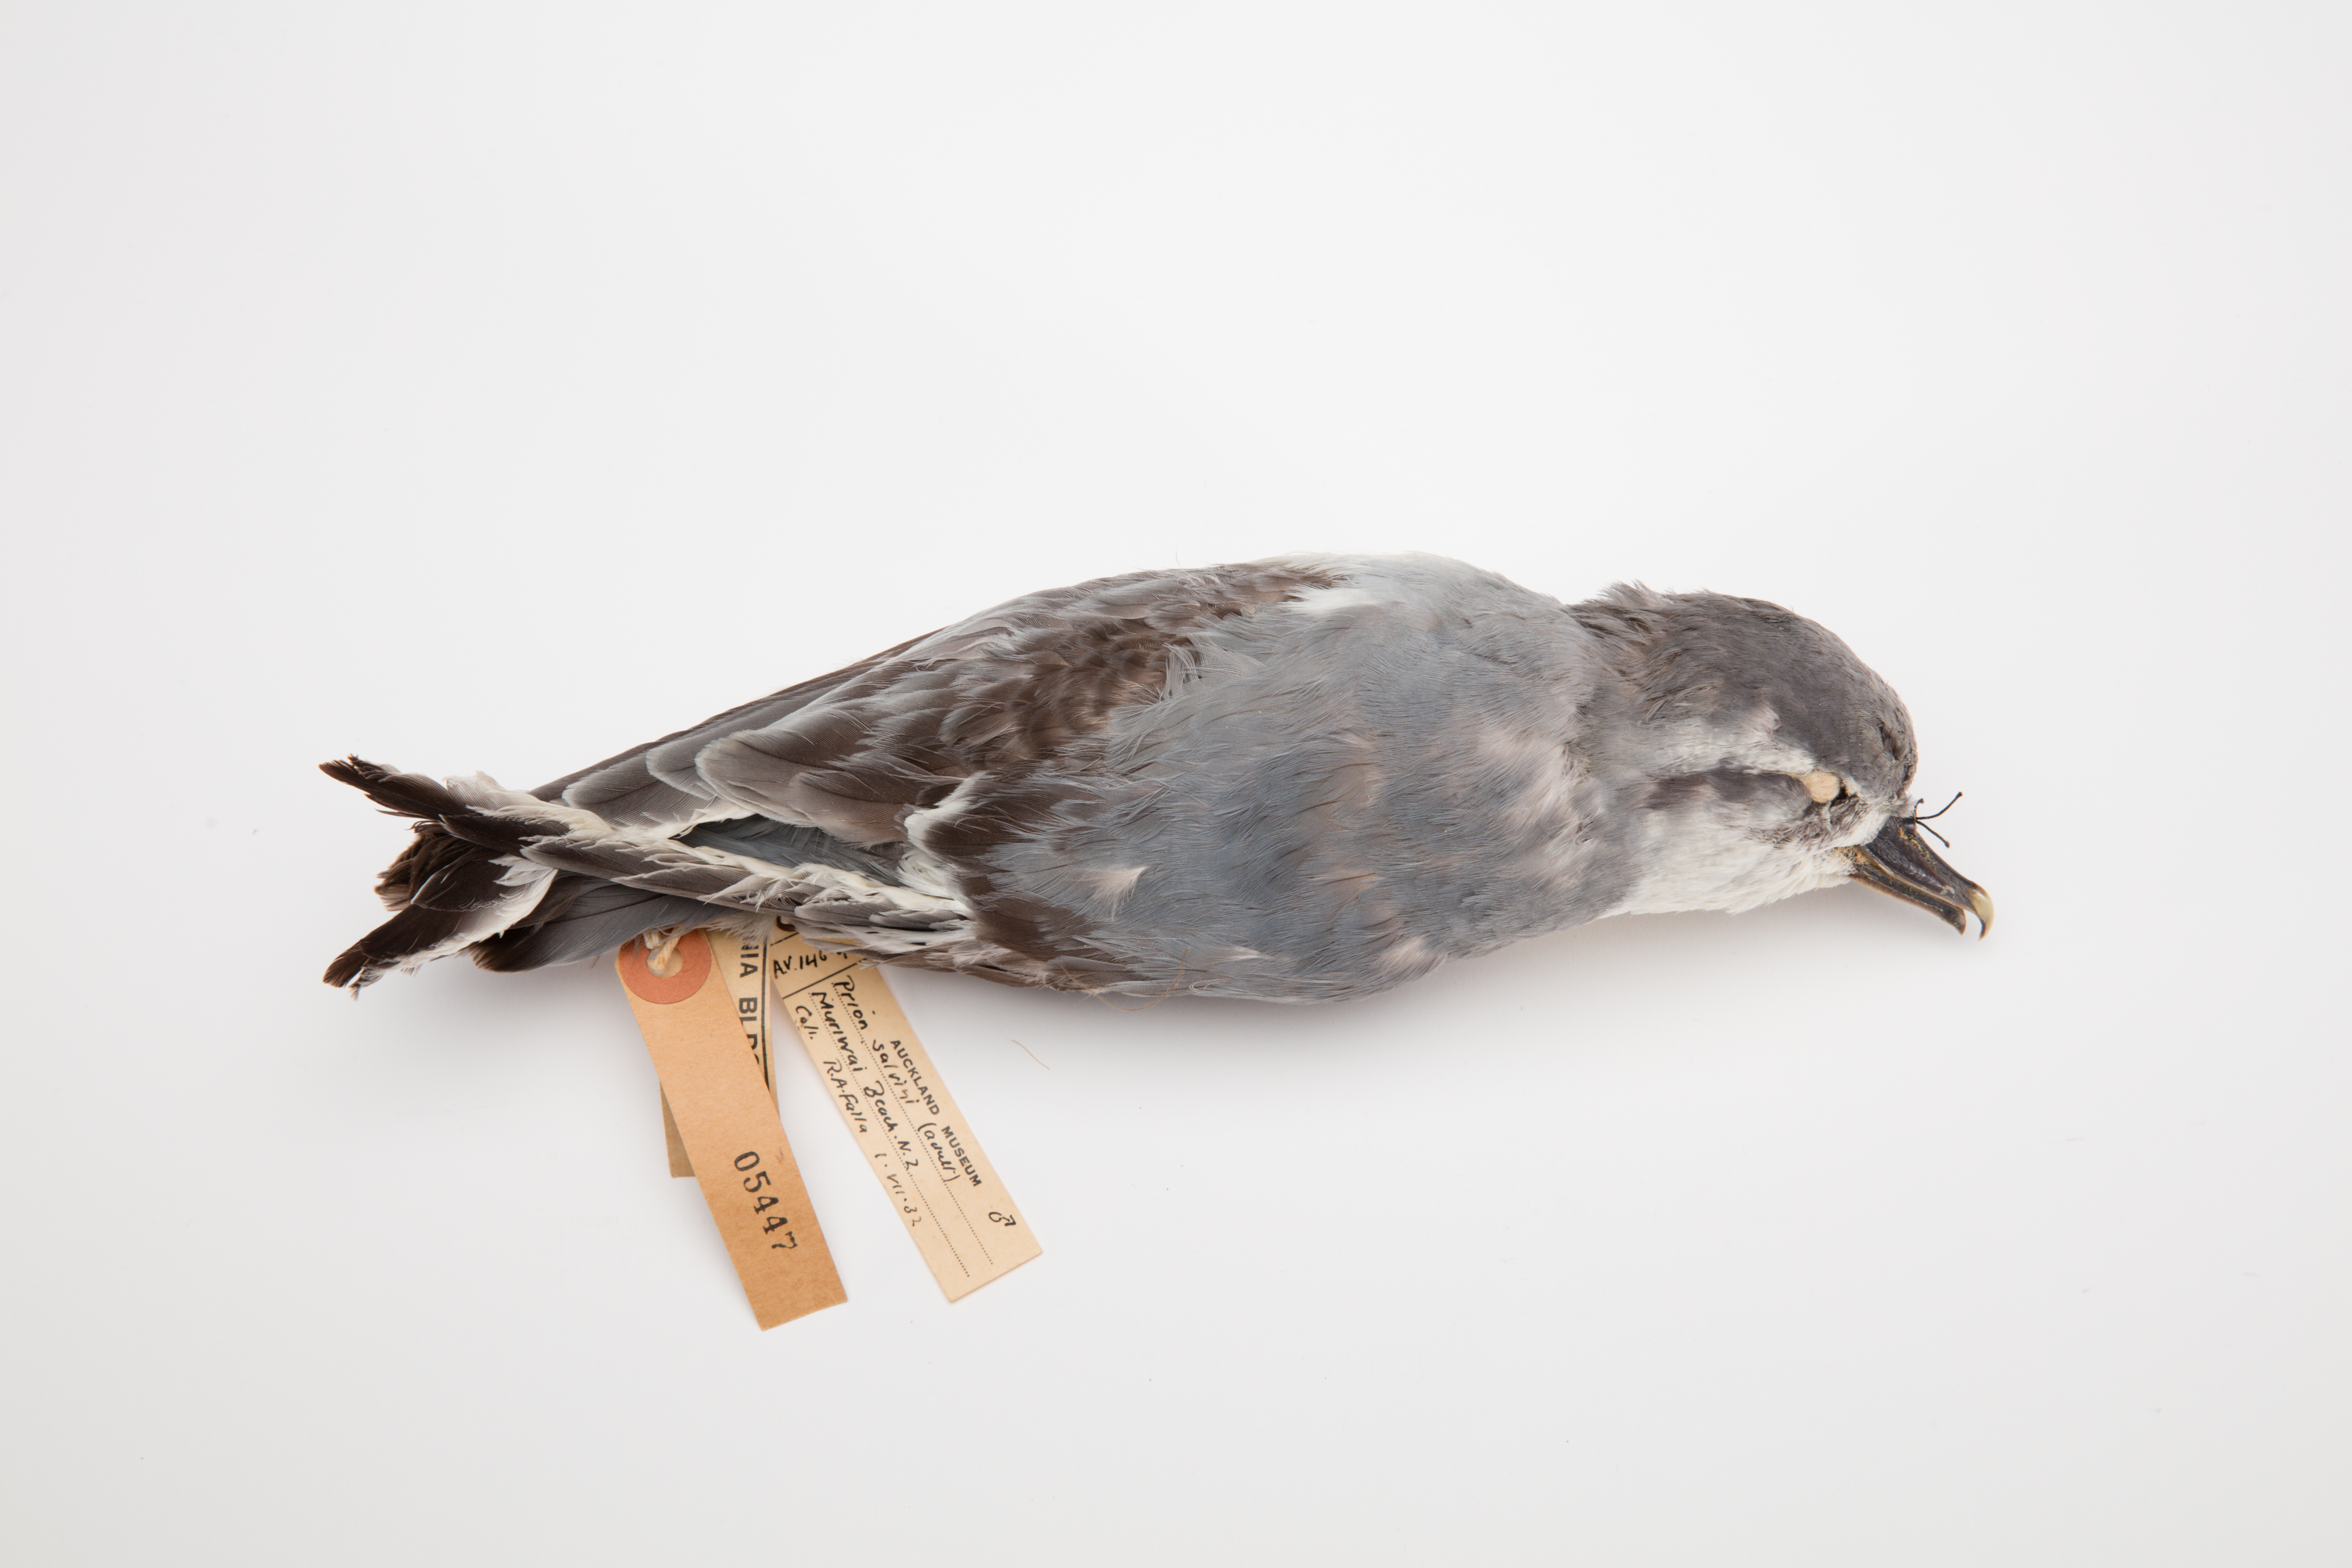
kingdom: Animalia
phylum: Chordata
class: Aves
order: Procellariiformes
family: Procellariidae
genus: Pachyptila
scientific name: Pachyptila salvini
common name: Salvin's prion
